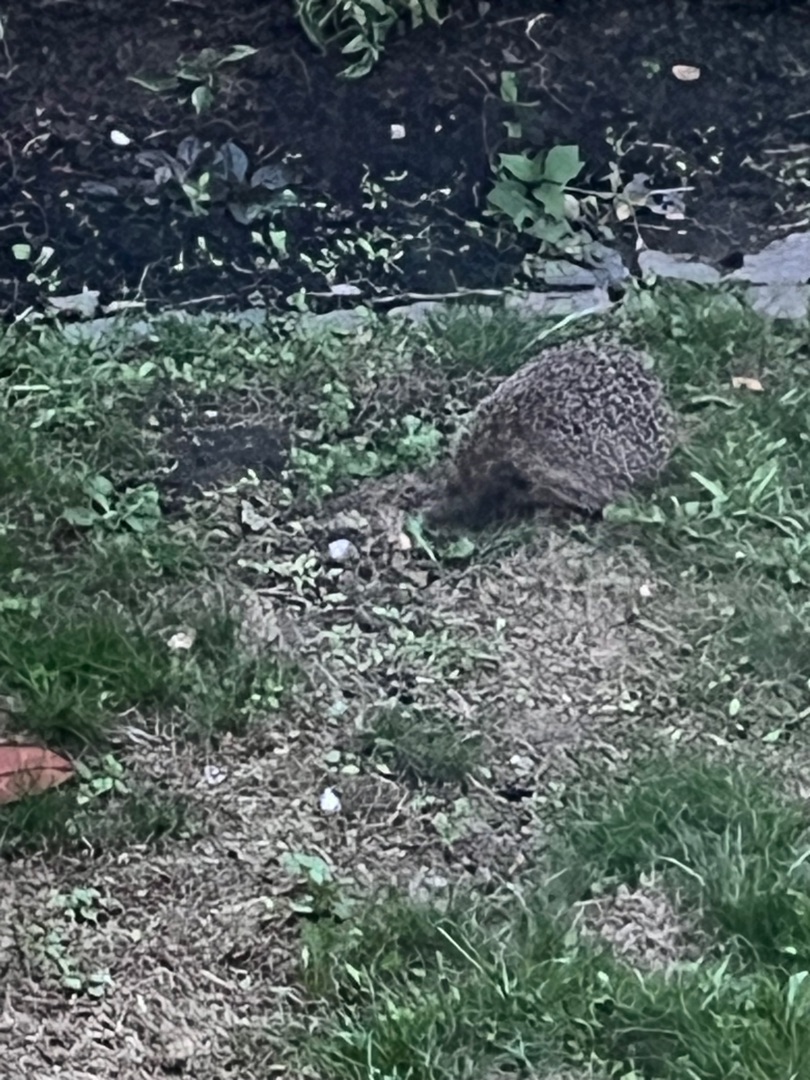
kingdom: Animalia
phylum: Chordata
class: Mammalia
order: Erinaceomorpha
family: Erinaceidae
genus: Erinaceus
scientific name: Erinaceus europaeus
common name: Pindsvin
